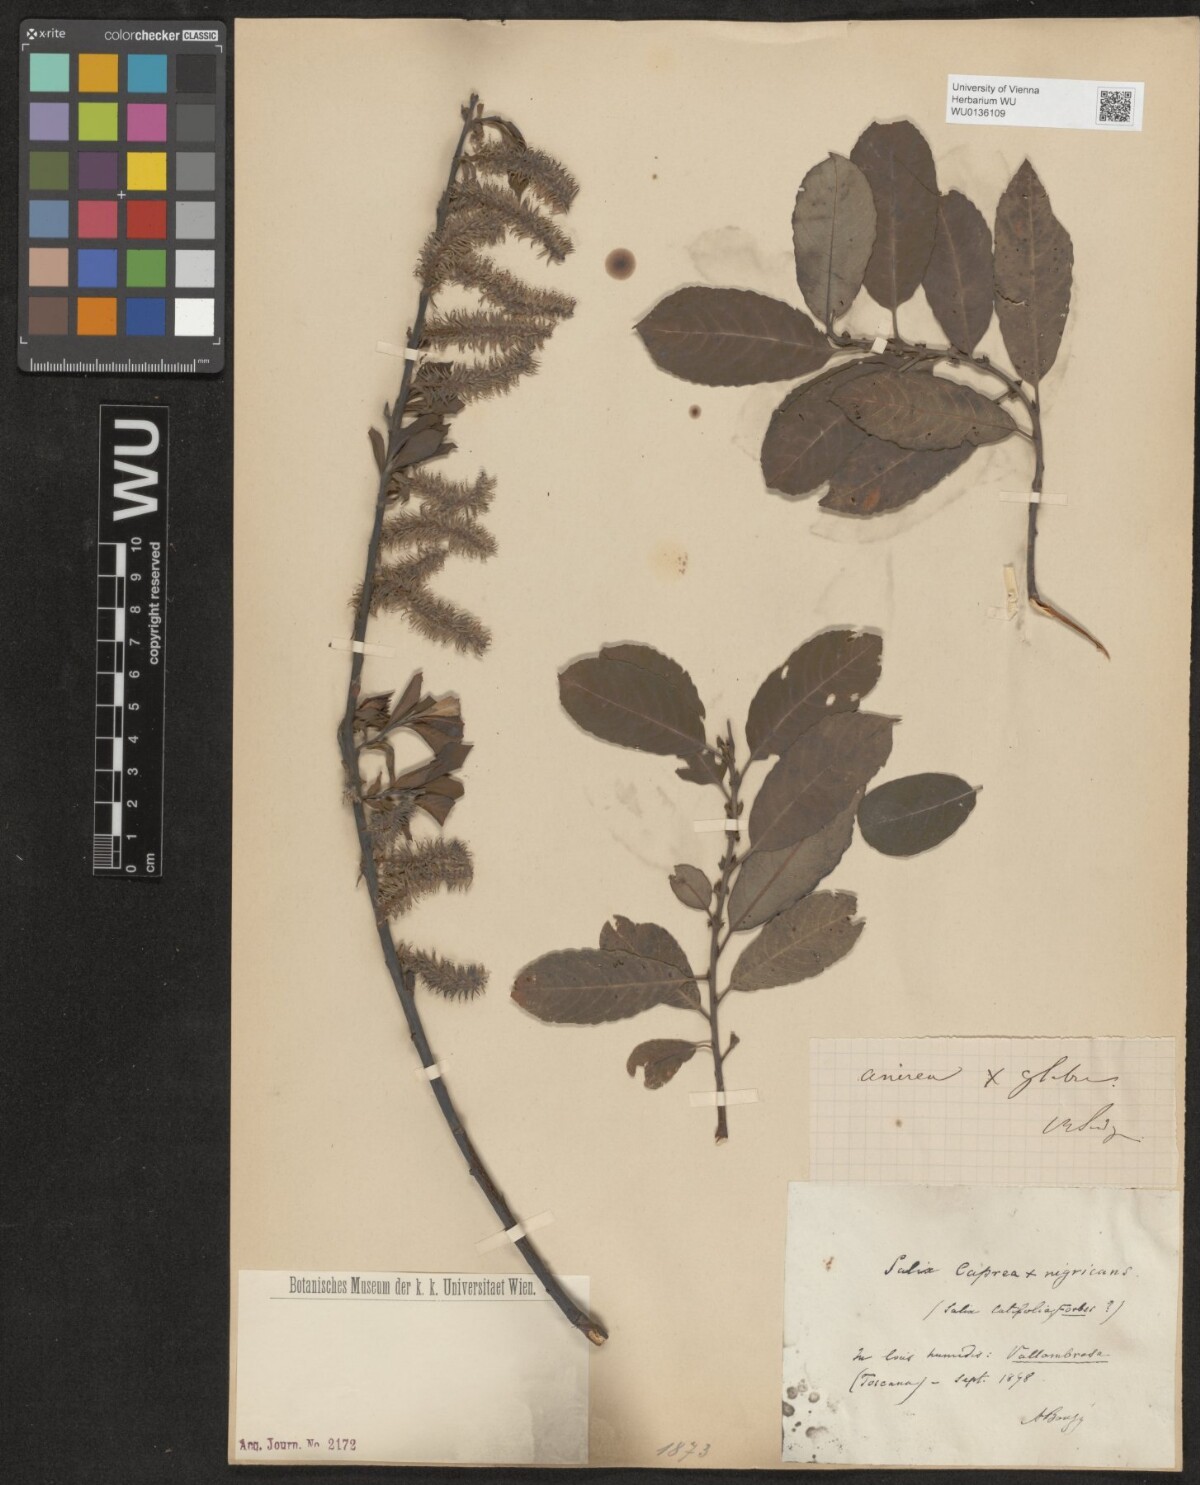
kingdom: Plantae
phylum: Tracheophyta
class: Magnoliopsida
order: Malpighiales
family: Salicaceae
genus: Salix
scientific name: Salix cinerea
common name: Common sallow
